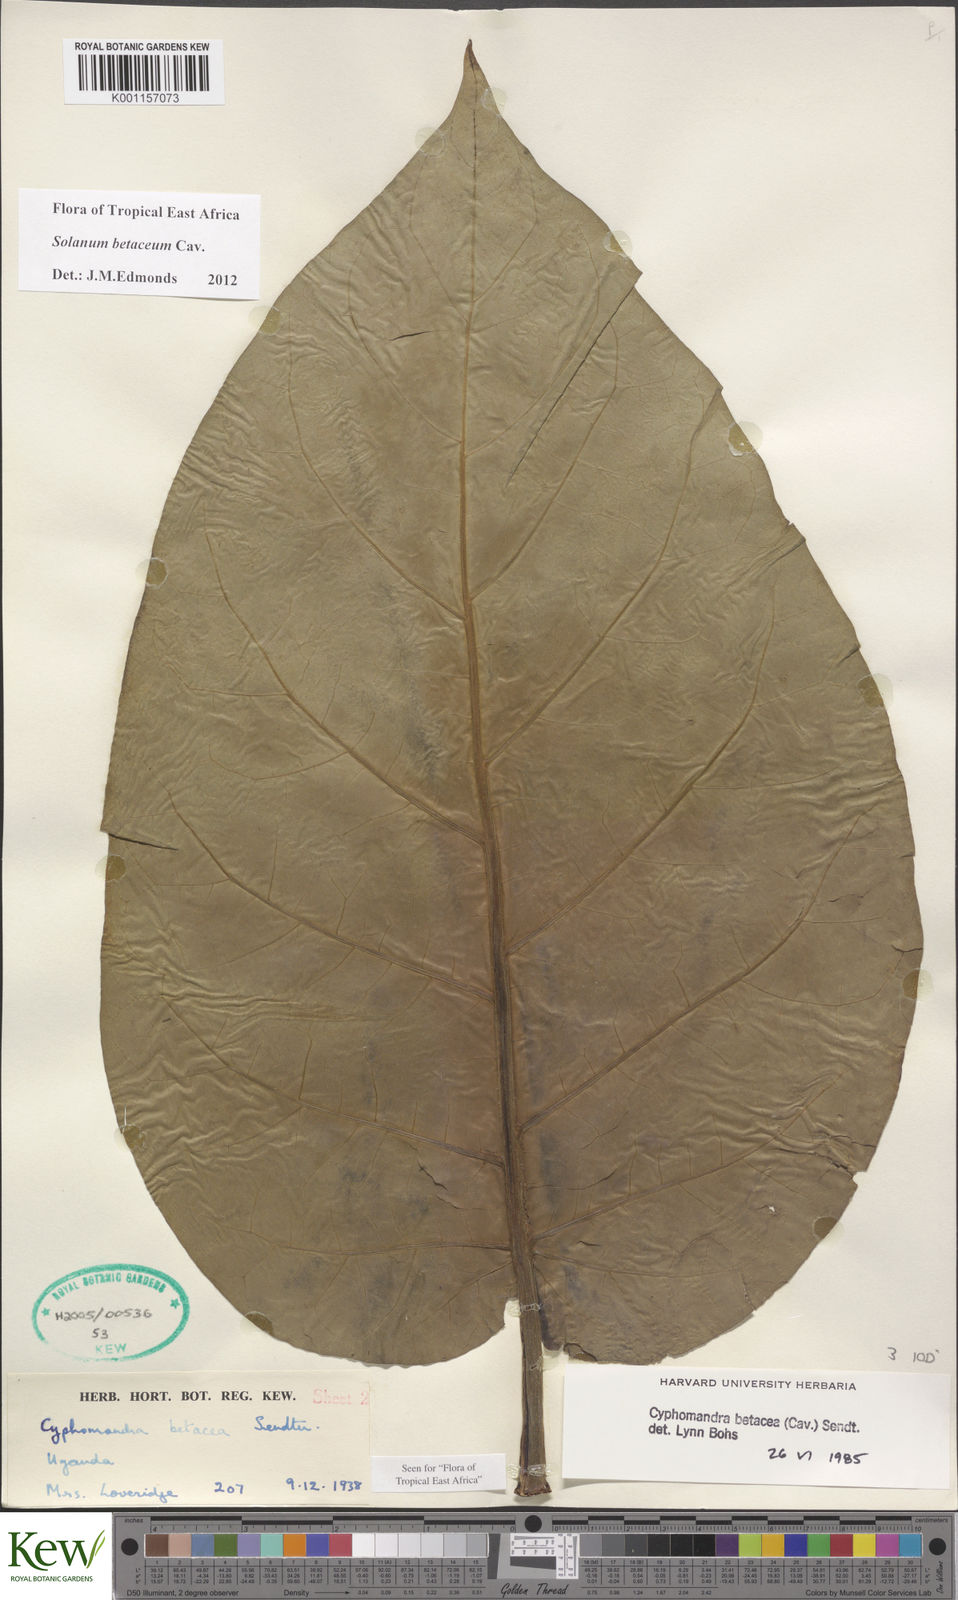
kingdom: Plantae
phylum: Tracheophyta
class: Magnoliopsida
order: Solanales
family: Solanaceae
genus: Solanum
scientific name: Solanum betaceum
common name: Tamarillo
